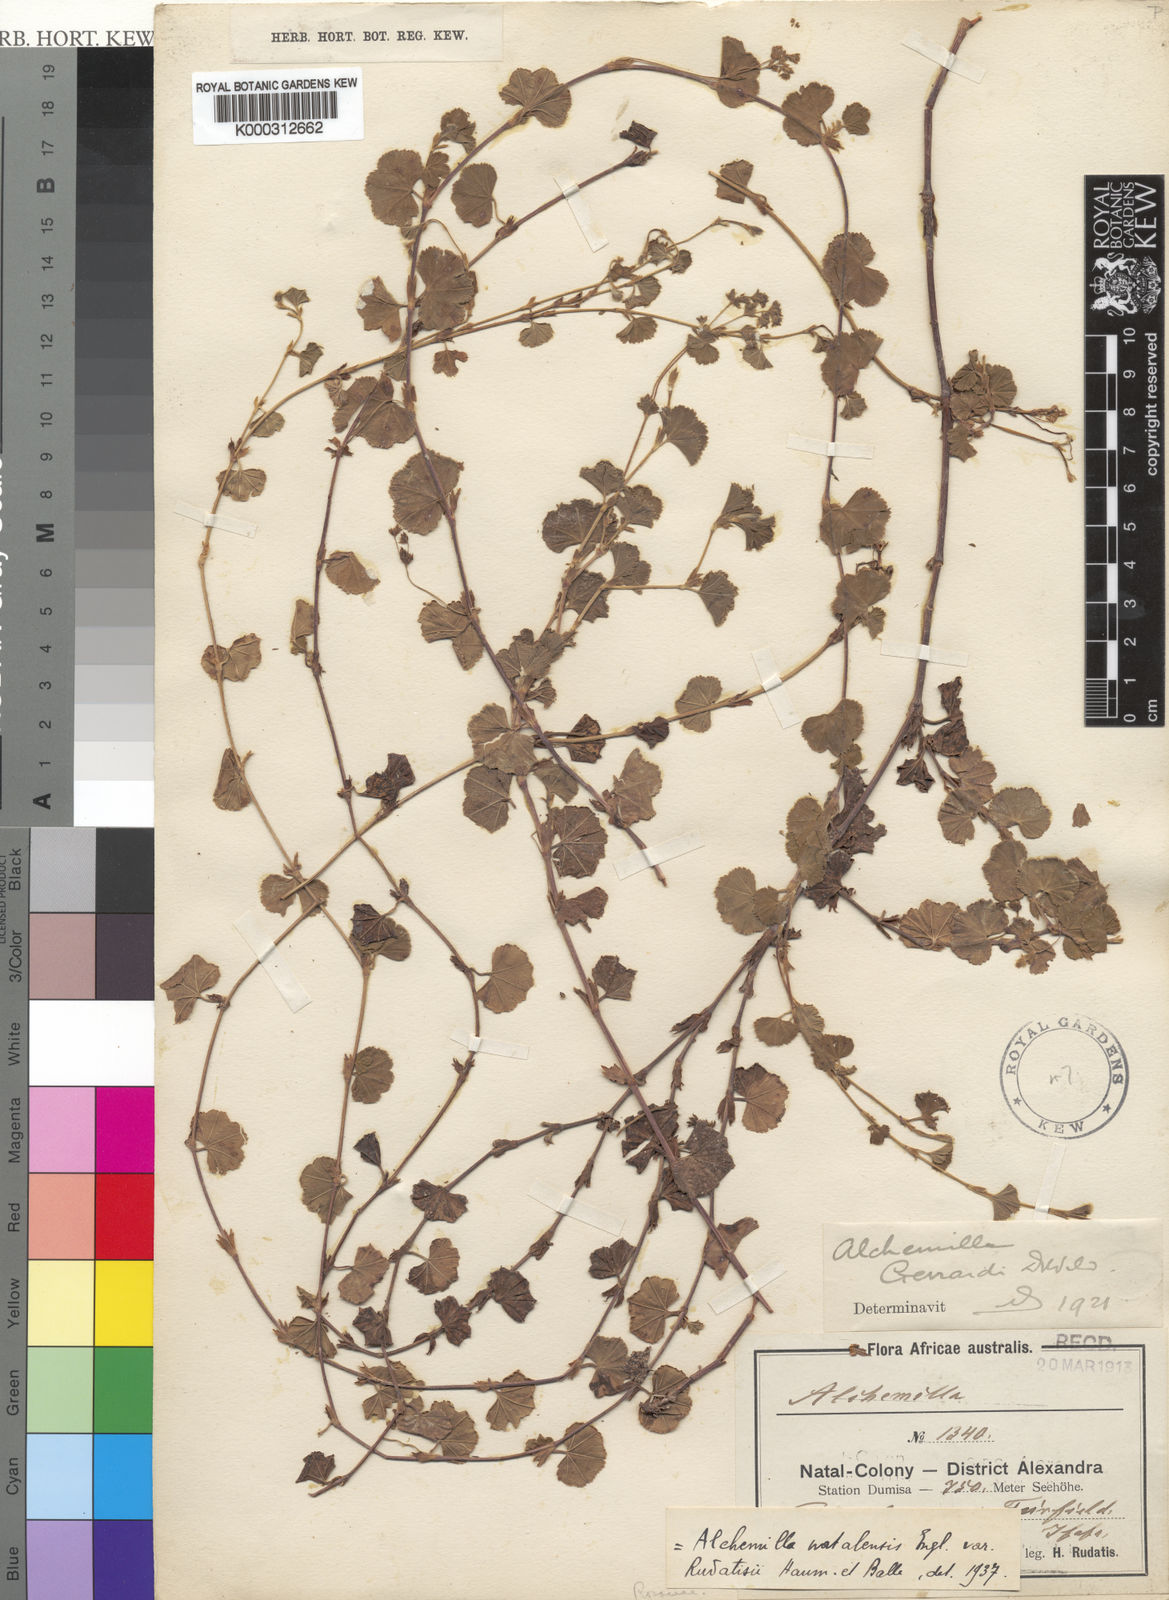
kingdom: Plantae
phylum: Tracheophyta
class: Magnoliopsida
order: Rosales
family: Rosaceae
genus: Alchemilla
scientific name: Alchemilla incurvata
